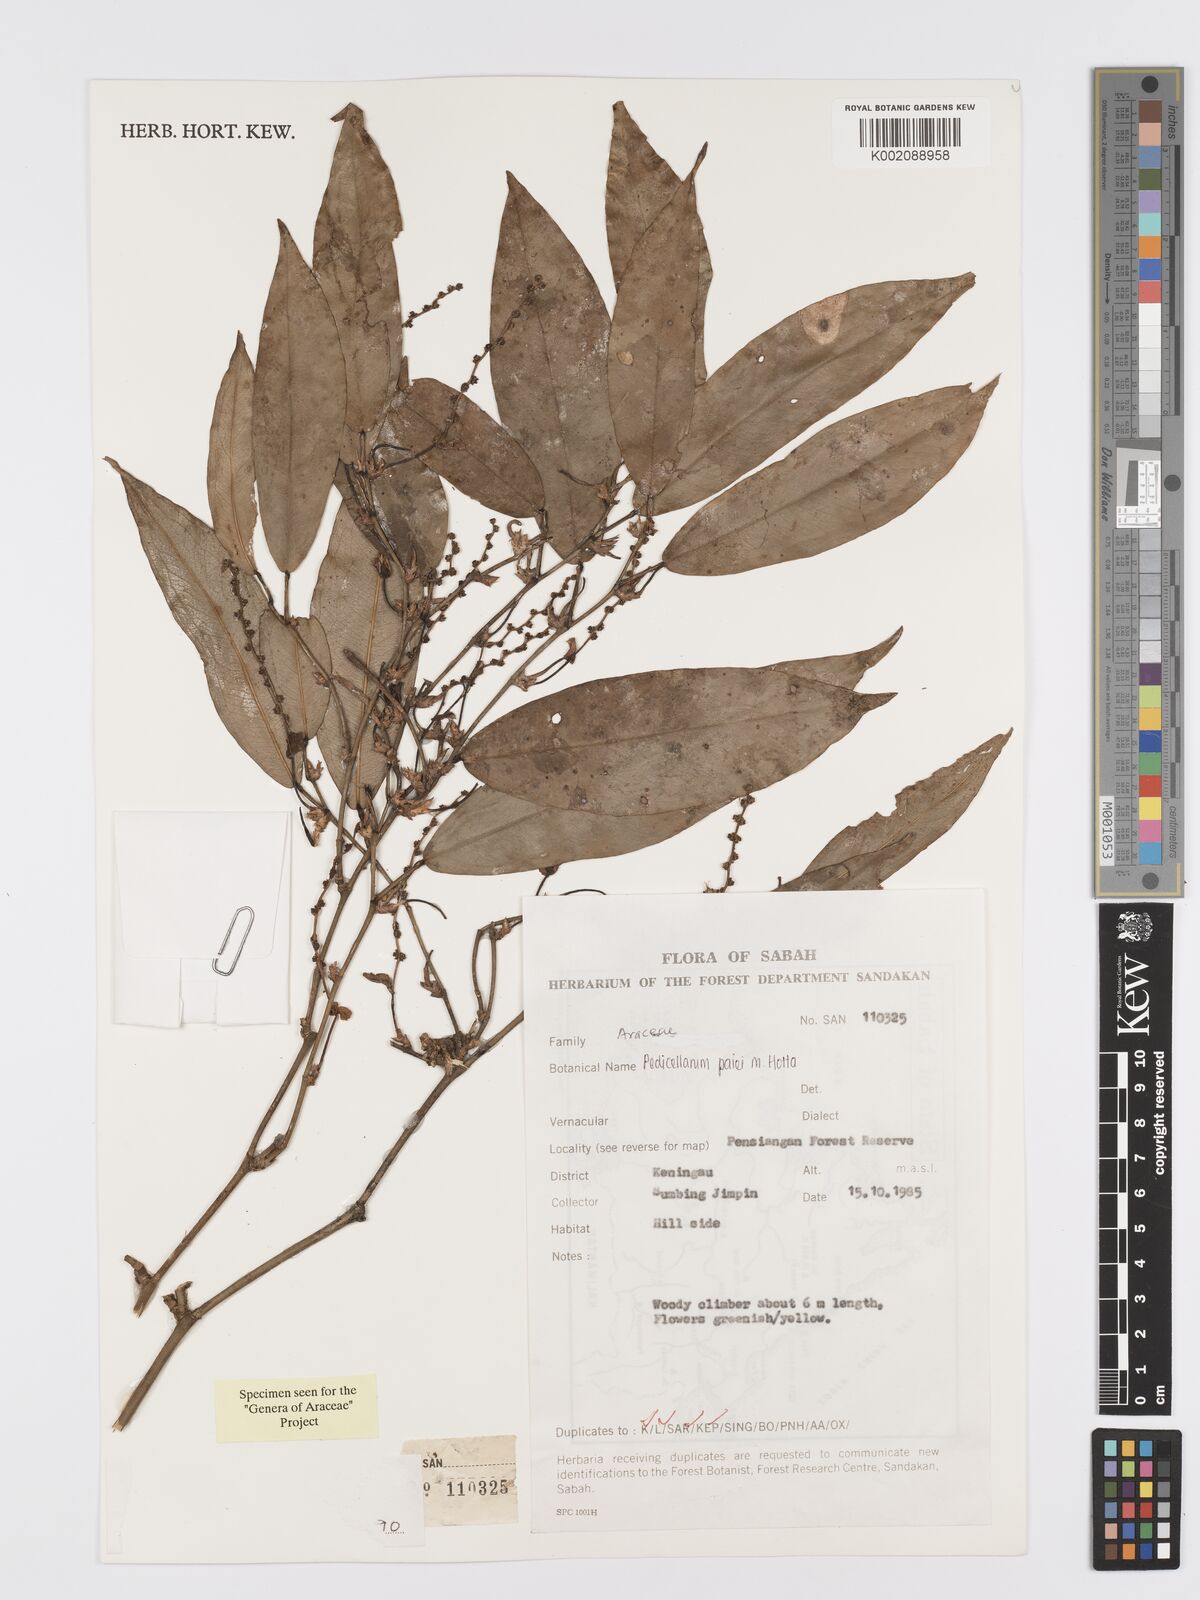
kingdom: Plantae
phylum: Tracheophyta
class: Liliopsida
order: Alismatales
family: Araceae
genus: Pothos
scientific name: Pothos beccarianus
